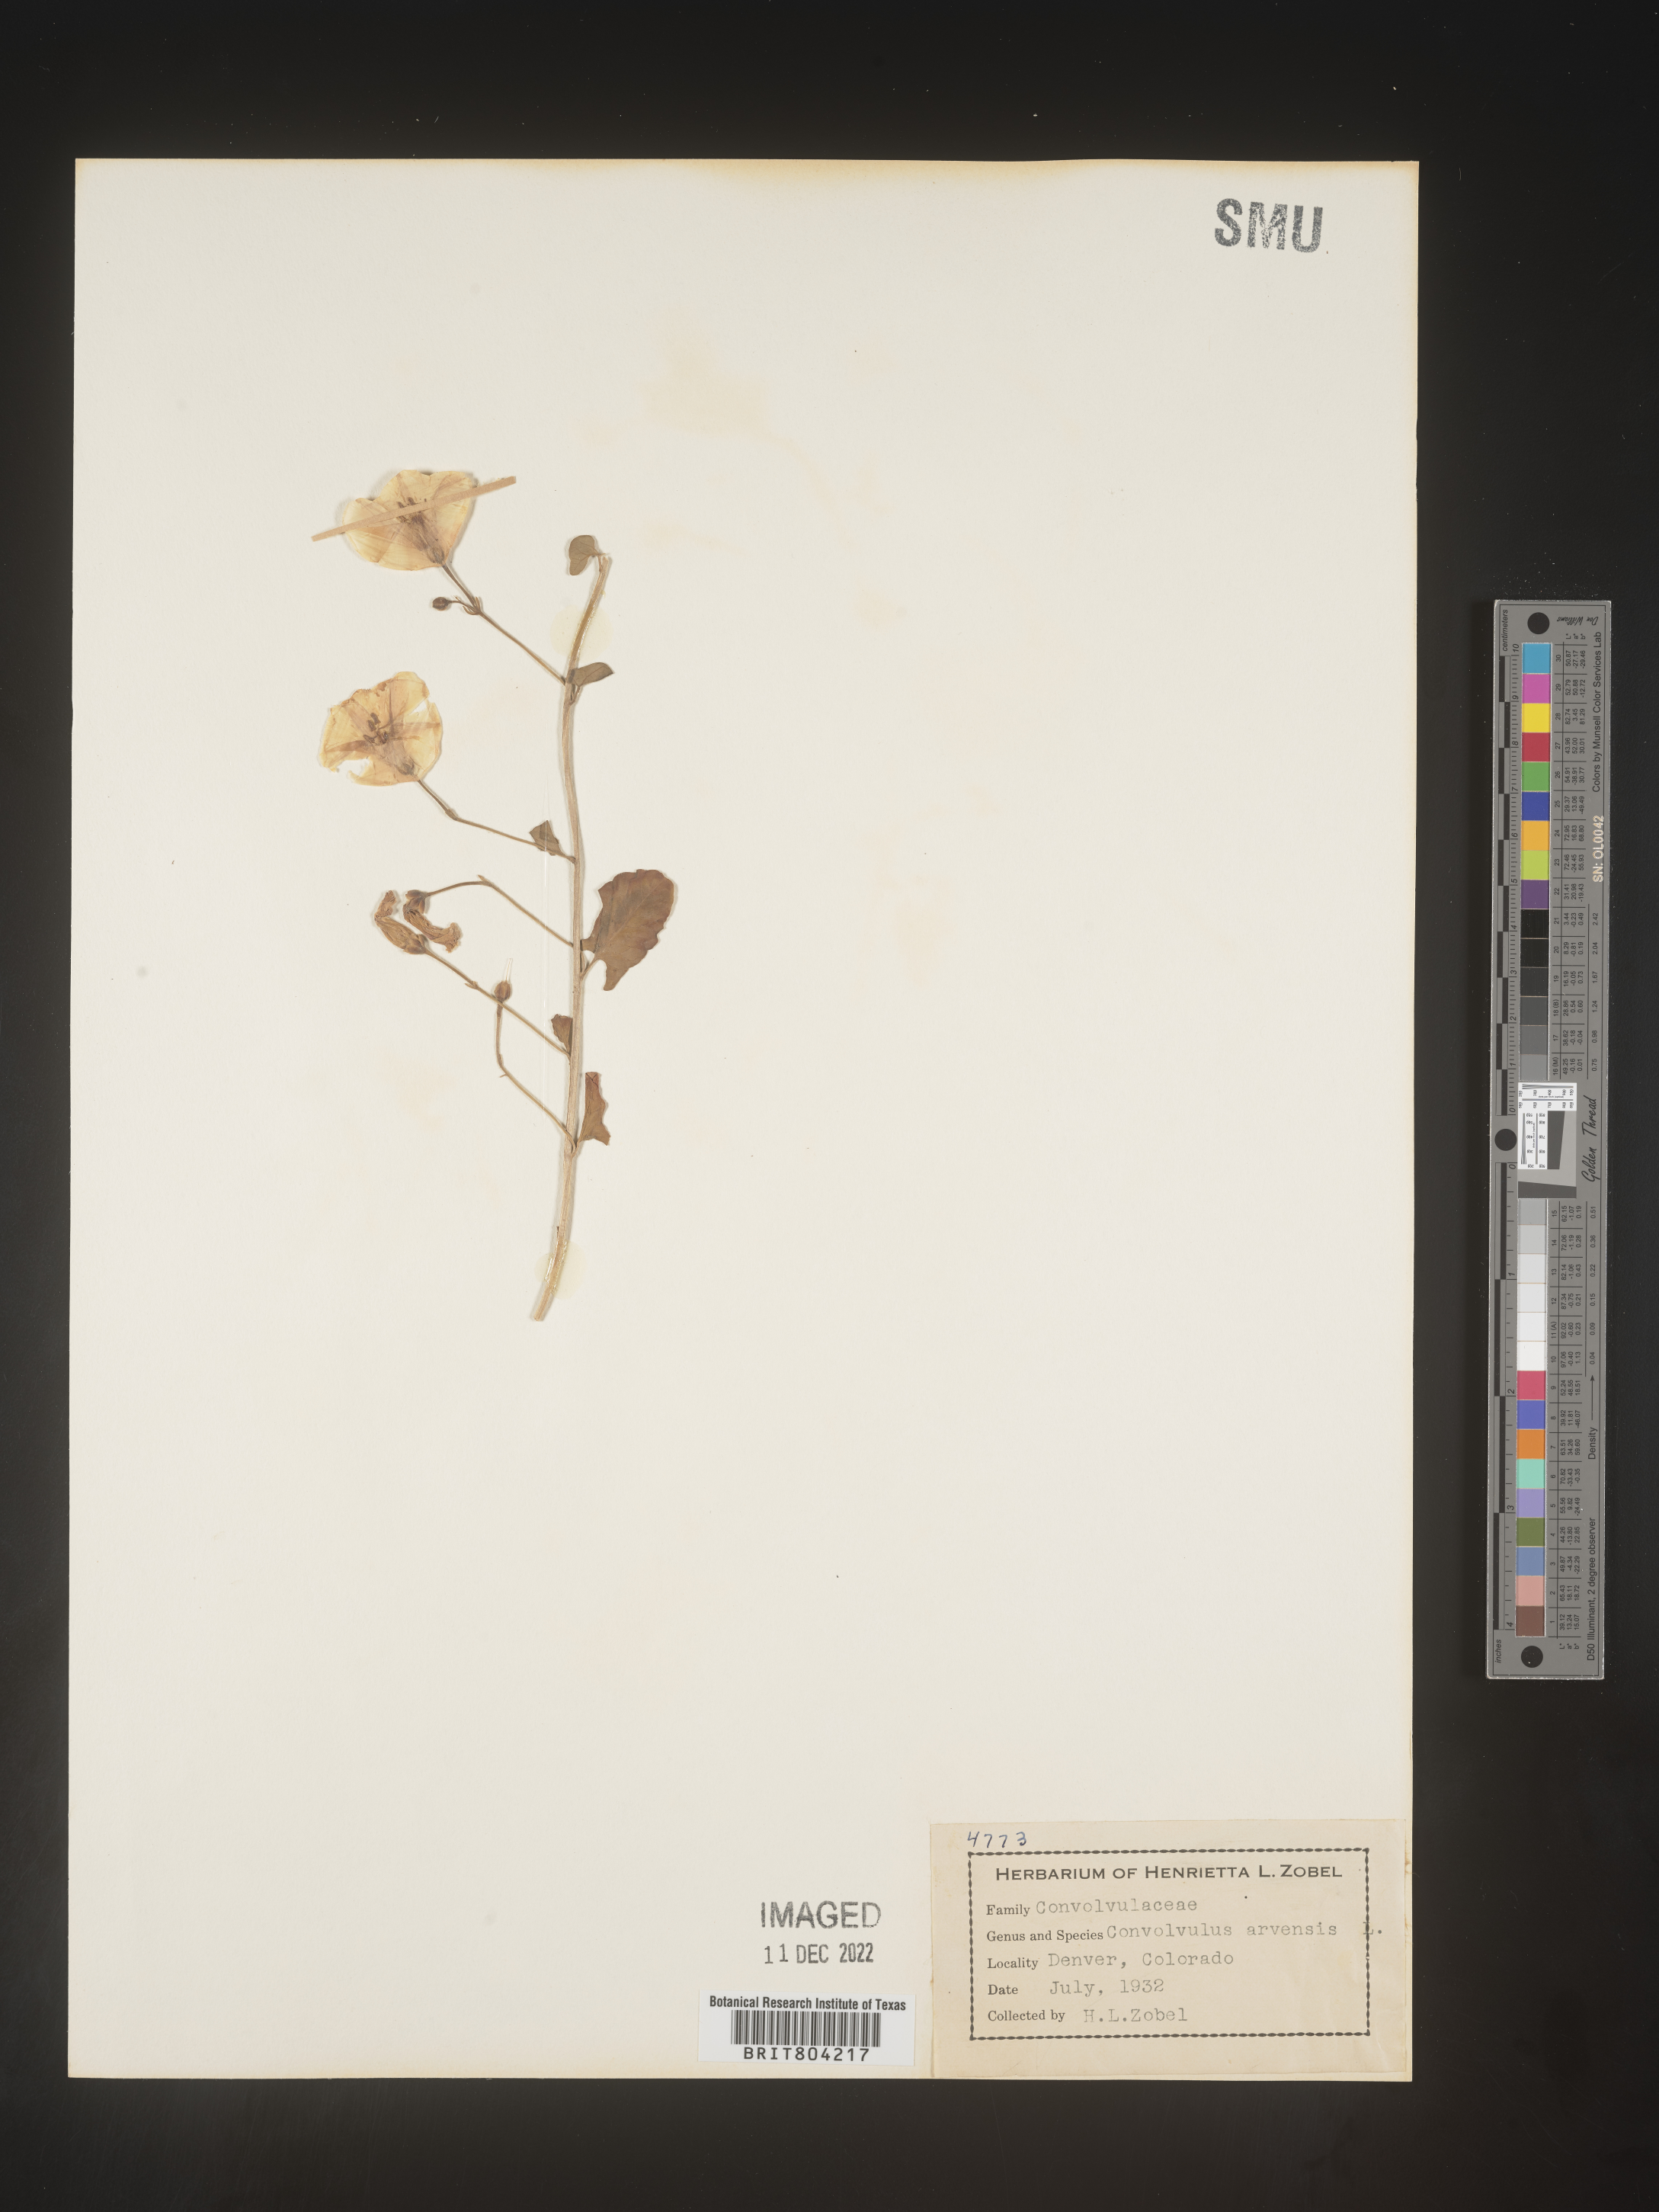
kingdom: Plantae
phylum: Tracheophyta
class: Magnoliopsida
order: Solanales
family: Convolvulaceae
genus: Convolvulus
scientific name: Convolvulus arvensis
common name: Field bindweed
